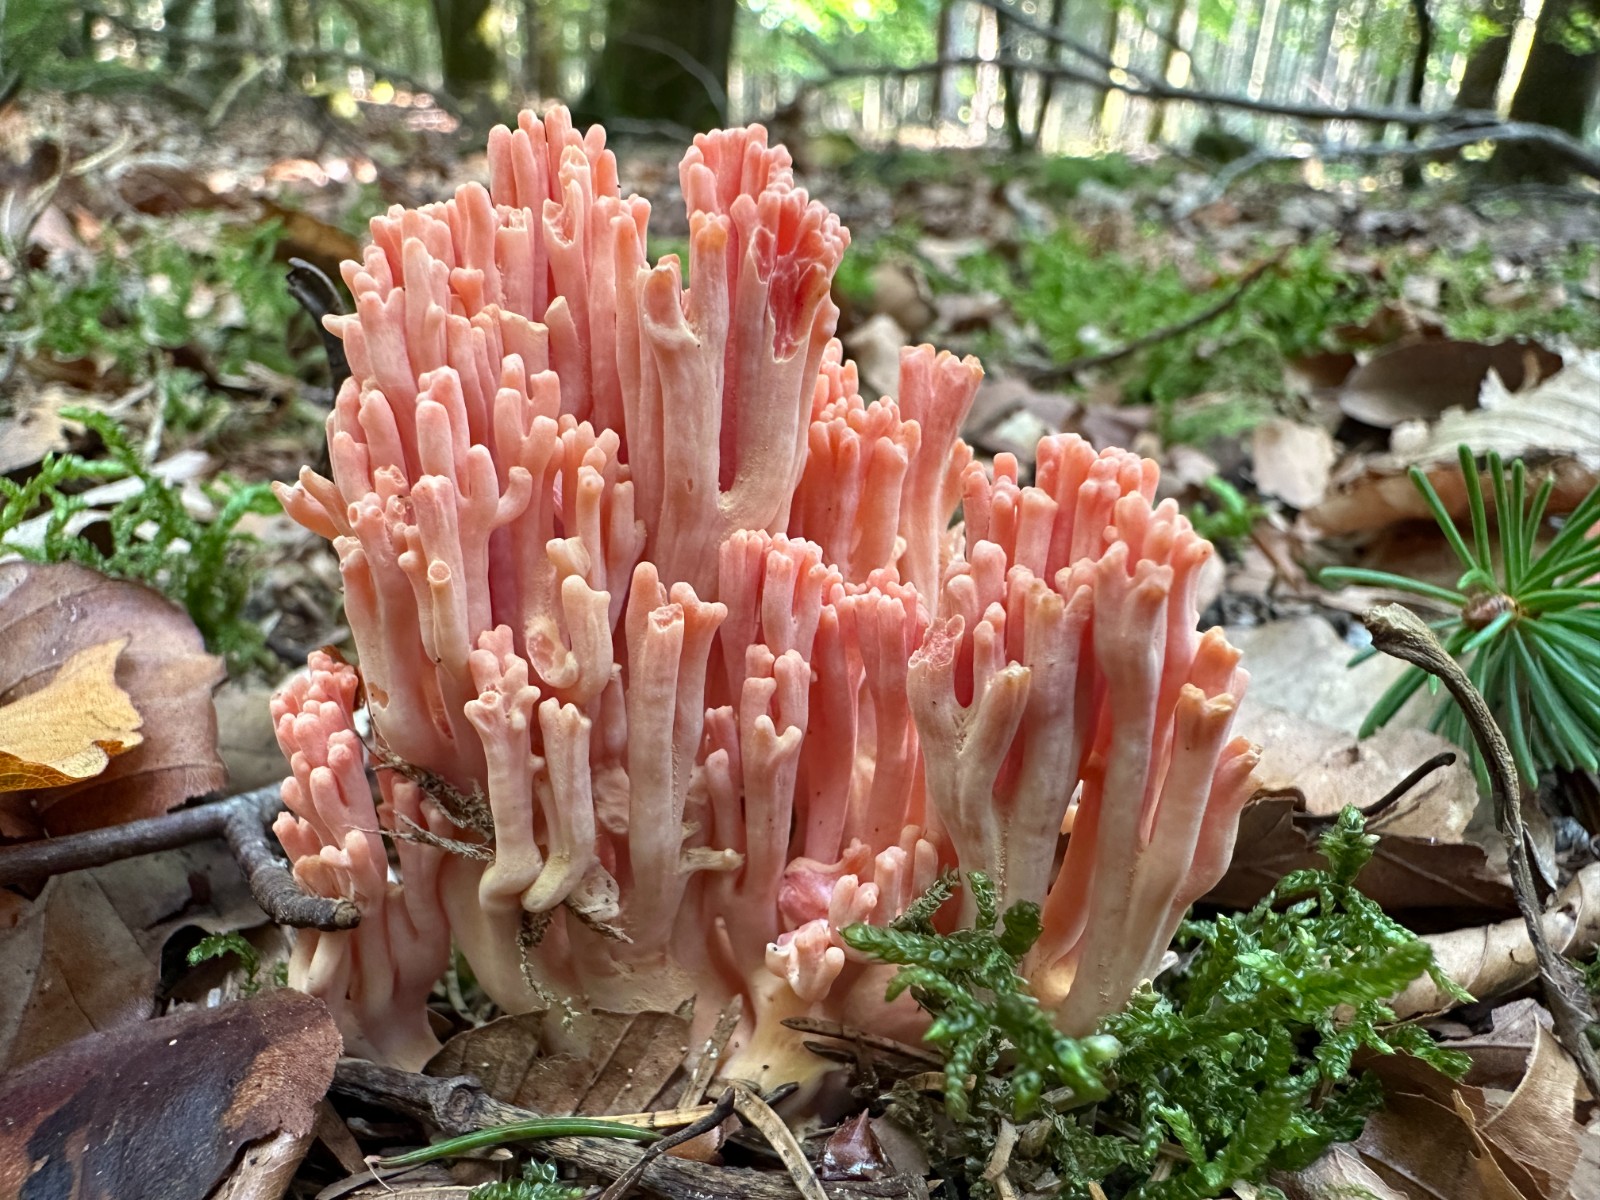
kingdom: Fungi
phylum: Basidiomycota
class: Agaricomycetes
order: Gomphales
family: Gomphaceae
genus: Ramaria
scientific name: Ramaria fagetorum
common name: abrikos-koralsvamp
